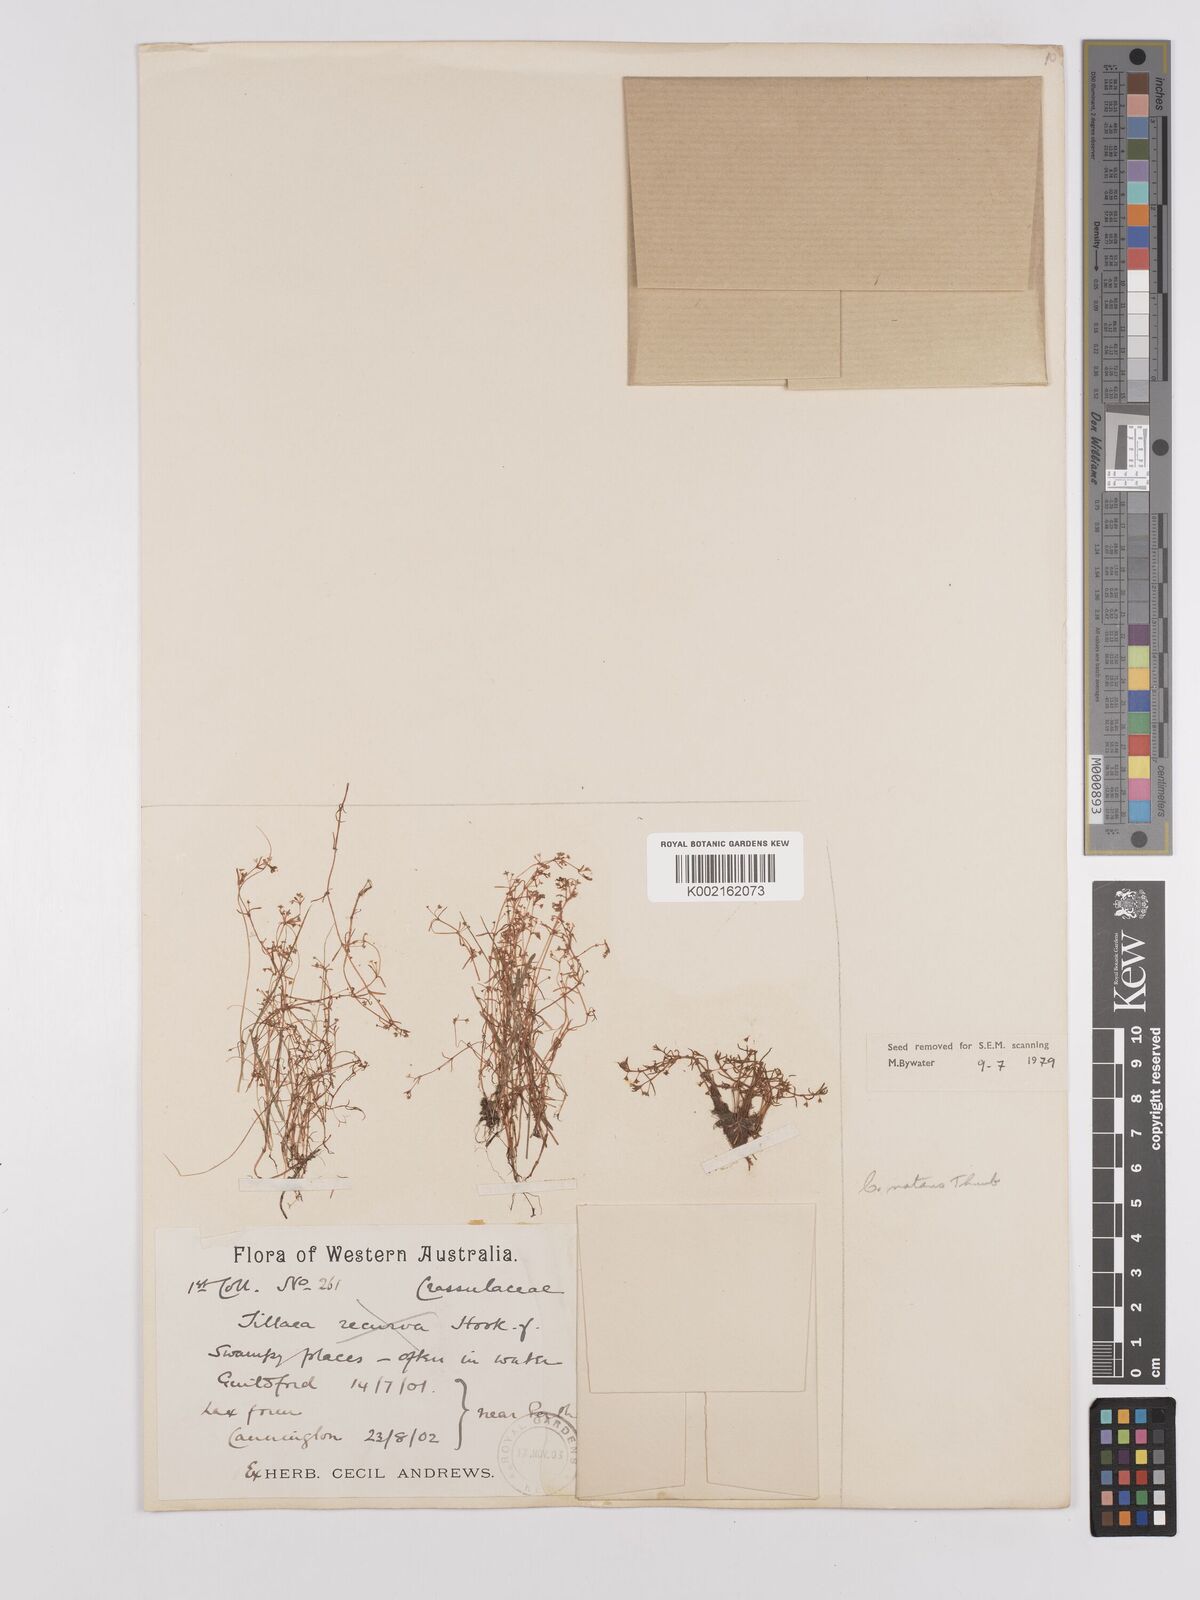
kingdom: Plantae
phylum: Tracheophyta
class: Magnoliopsida
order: Saxifragales
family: Crassulaceae
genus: Crassula
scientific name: Crassula natans
